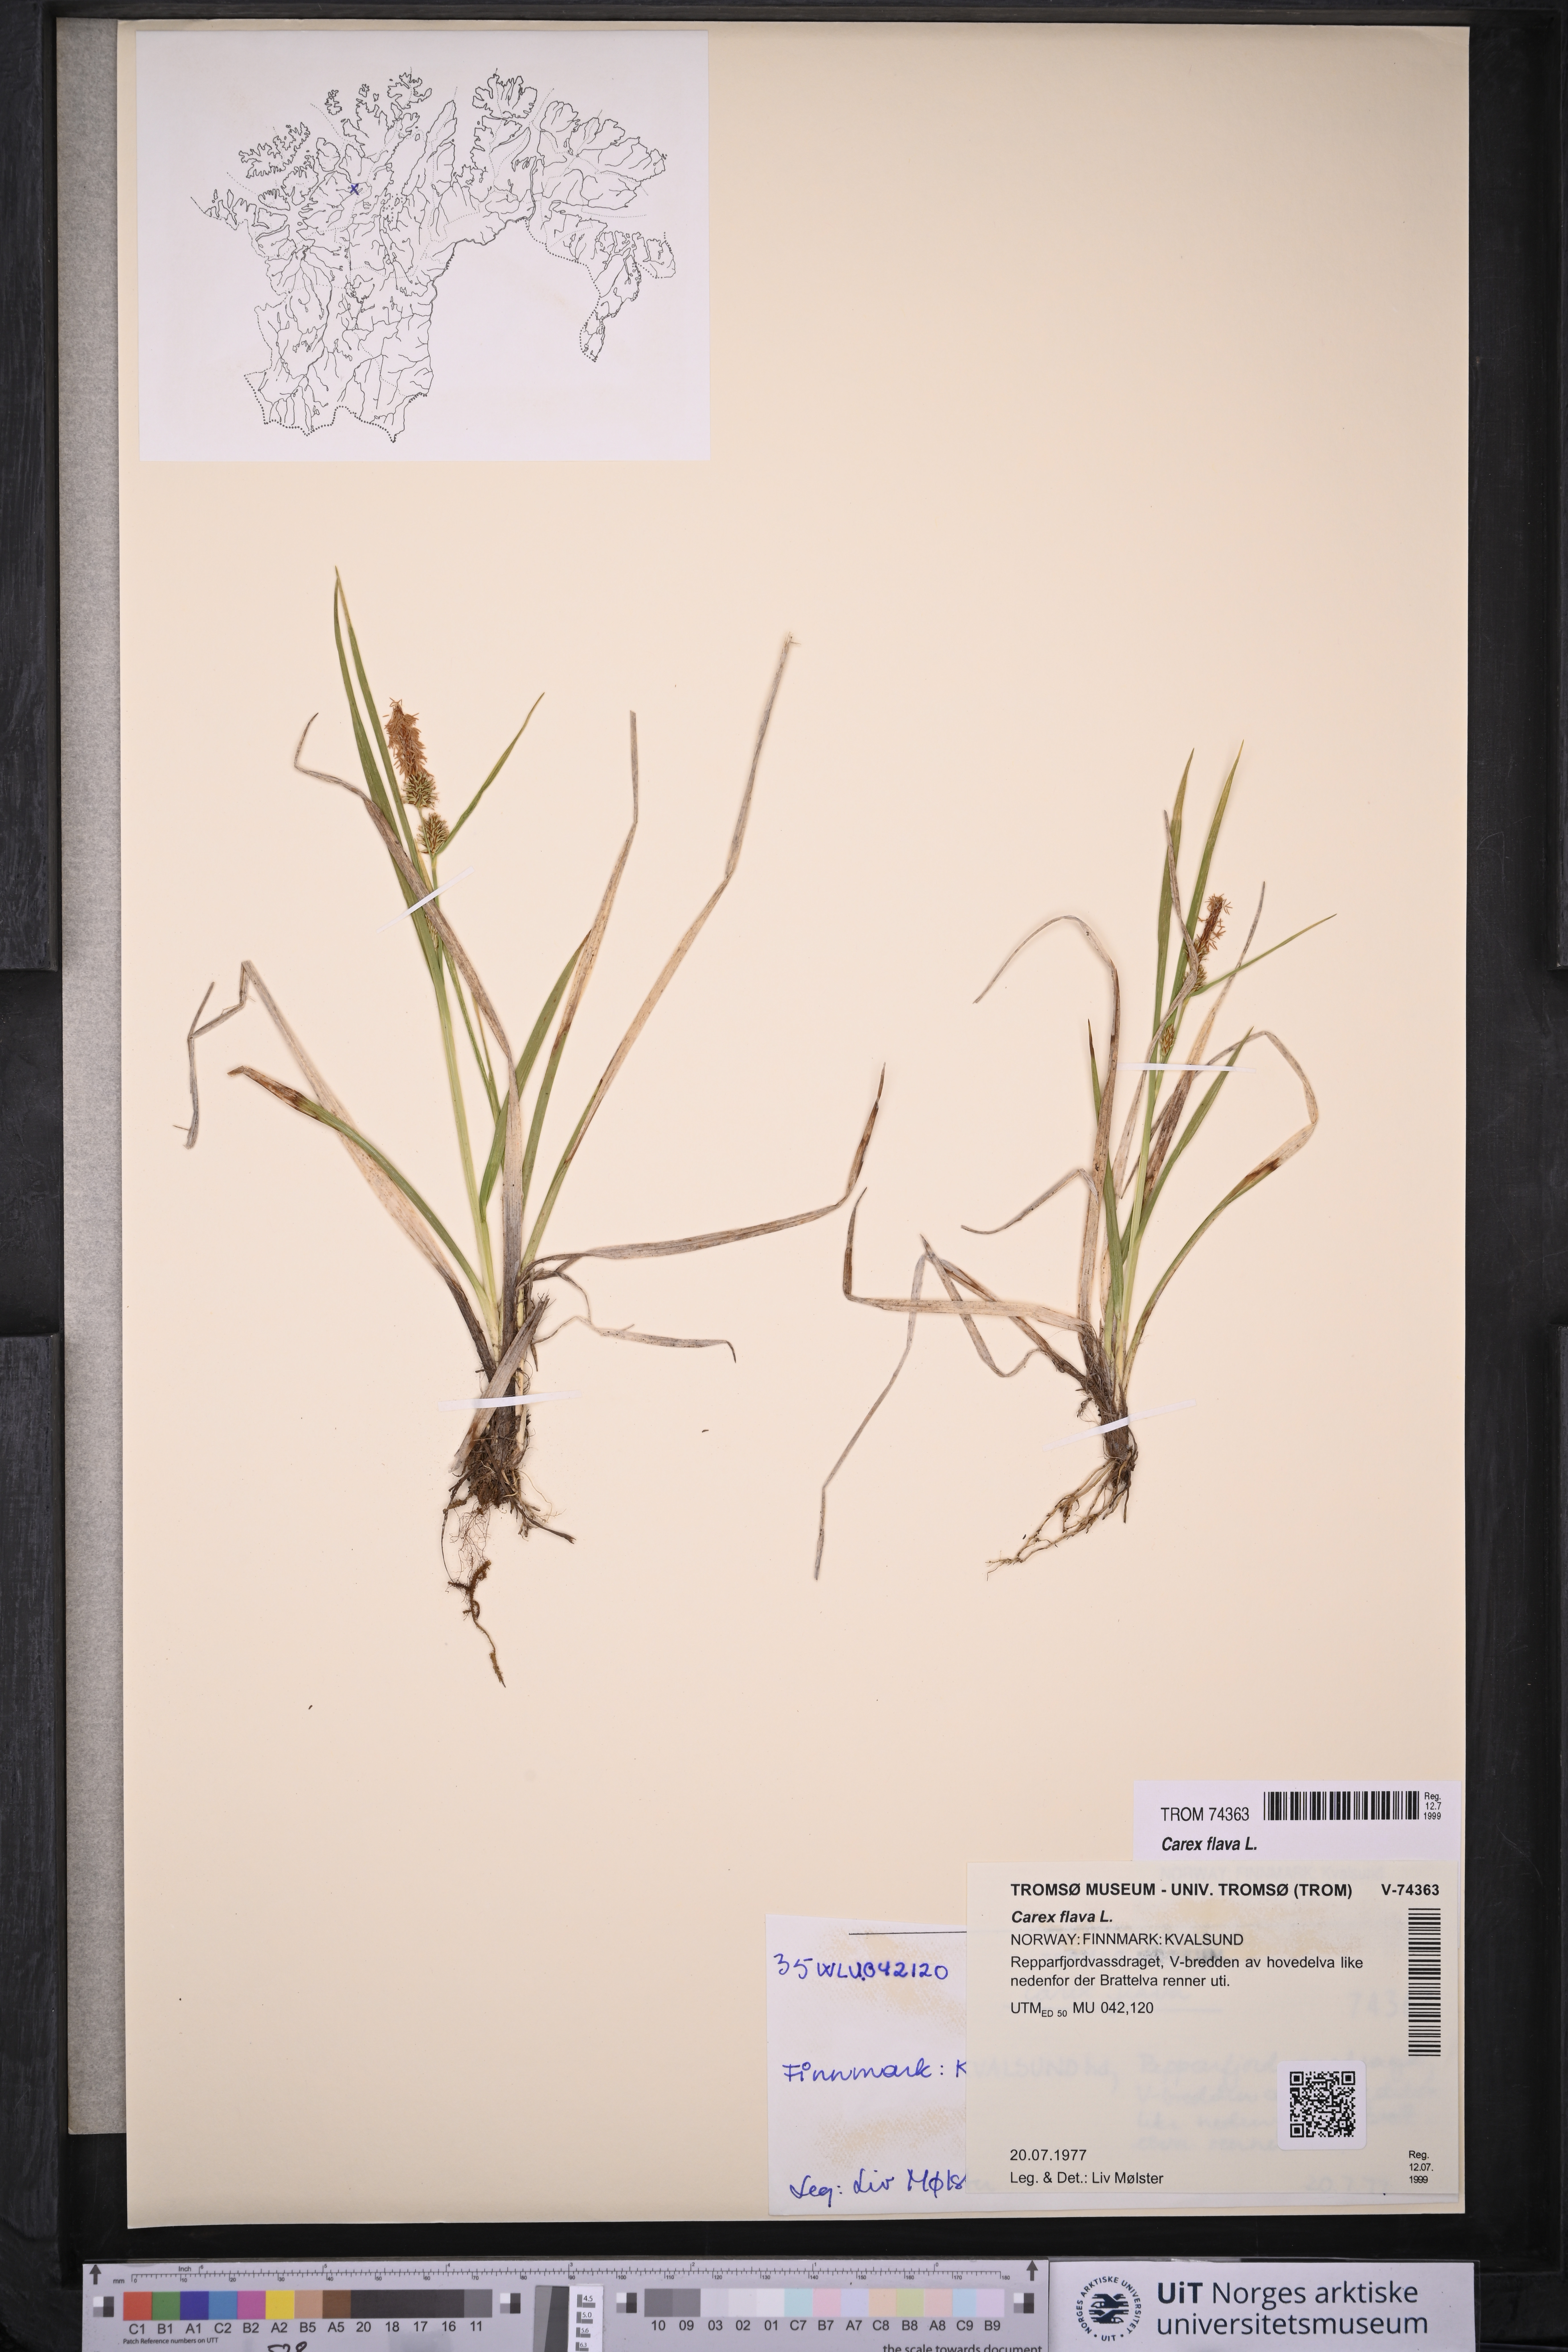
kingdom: Plantae
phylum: Tracheophyta
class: Liliopsida
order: Poales
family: Cyperaceae
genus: Carex
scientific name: Carex flava
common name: Large yellow-sedge
